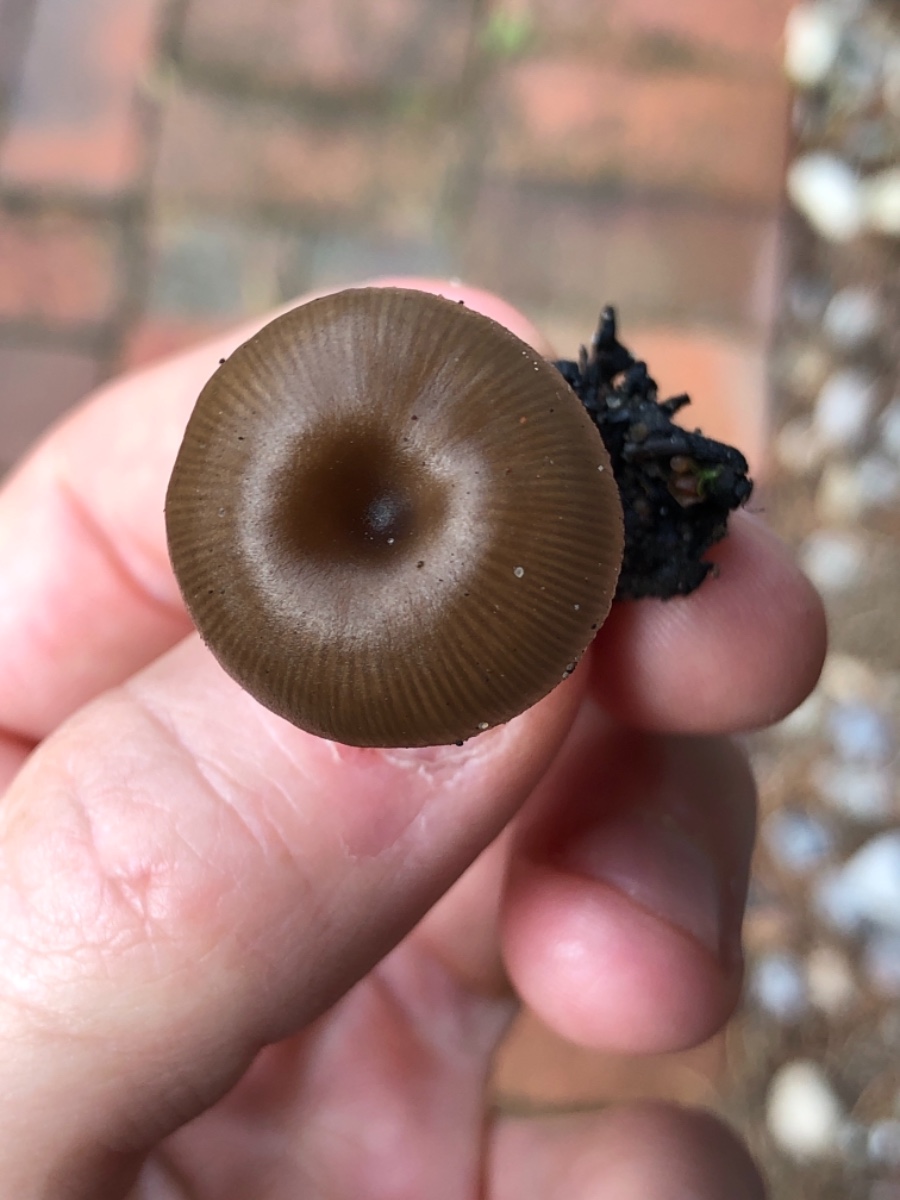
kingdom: Fungi
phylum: Basidiomycota
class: Agaricomycetes
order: Agaricales
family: Tricholomataceae
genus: Myxomphalia
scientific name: Myxomphalia maura
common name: kulhat
